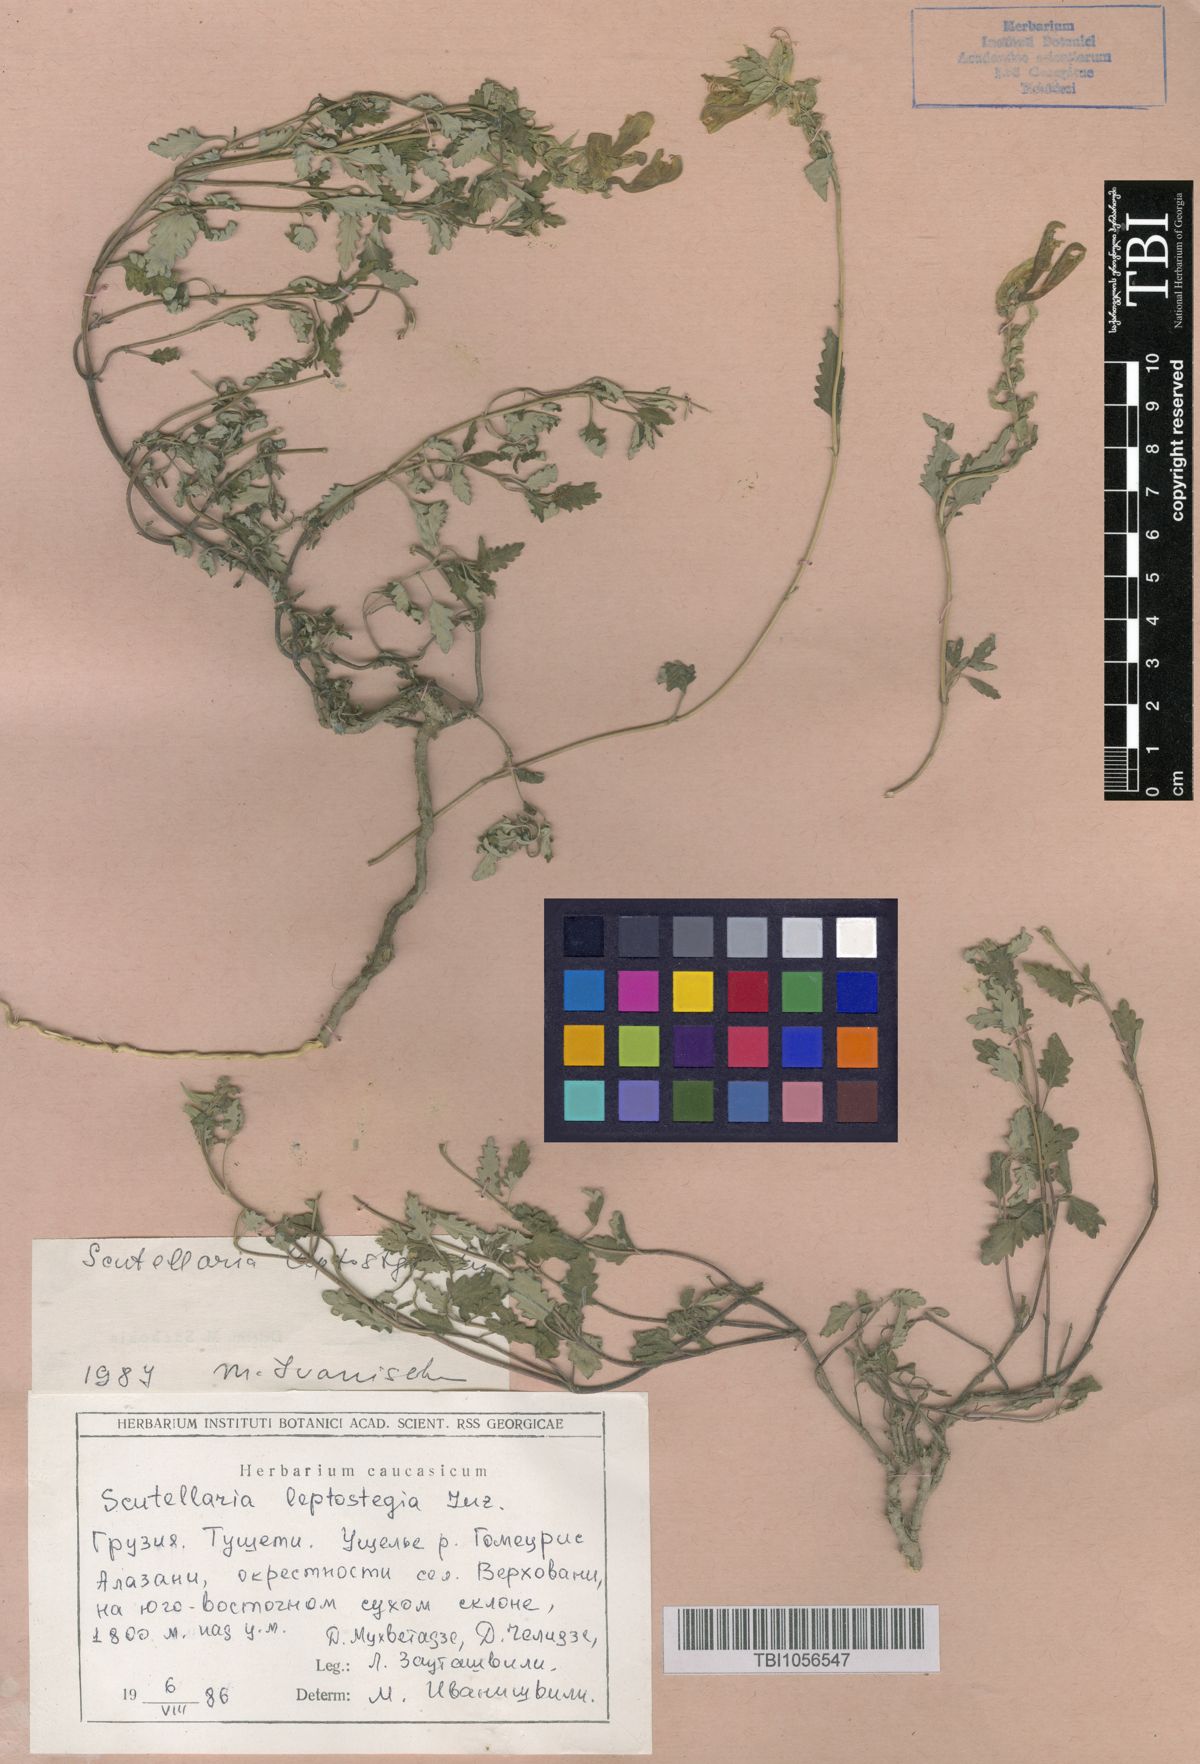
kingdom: Plantae
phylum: Tracheophyta
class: Magnoliopsida
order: Lamiales
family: Lamiaceae
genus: Scutellaria
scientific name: Scutellaria leptostegia
